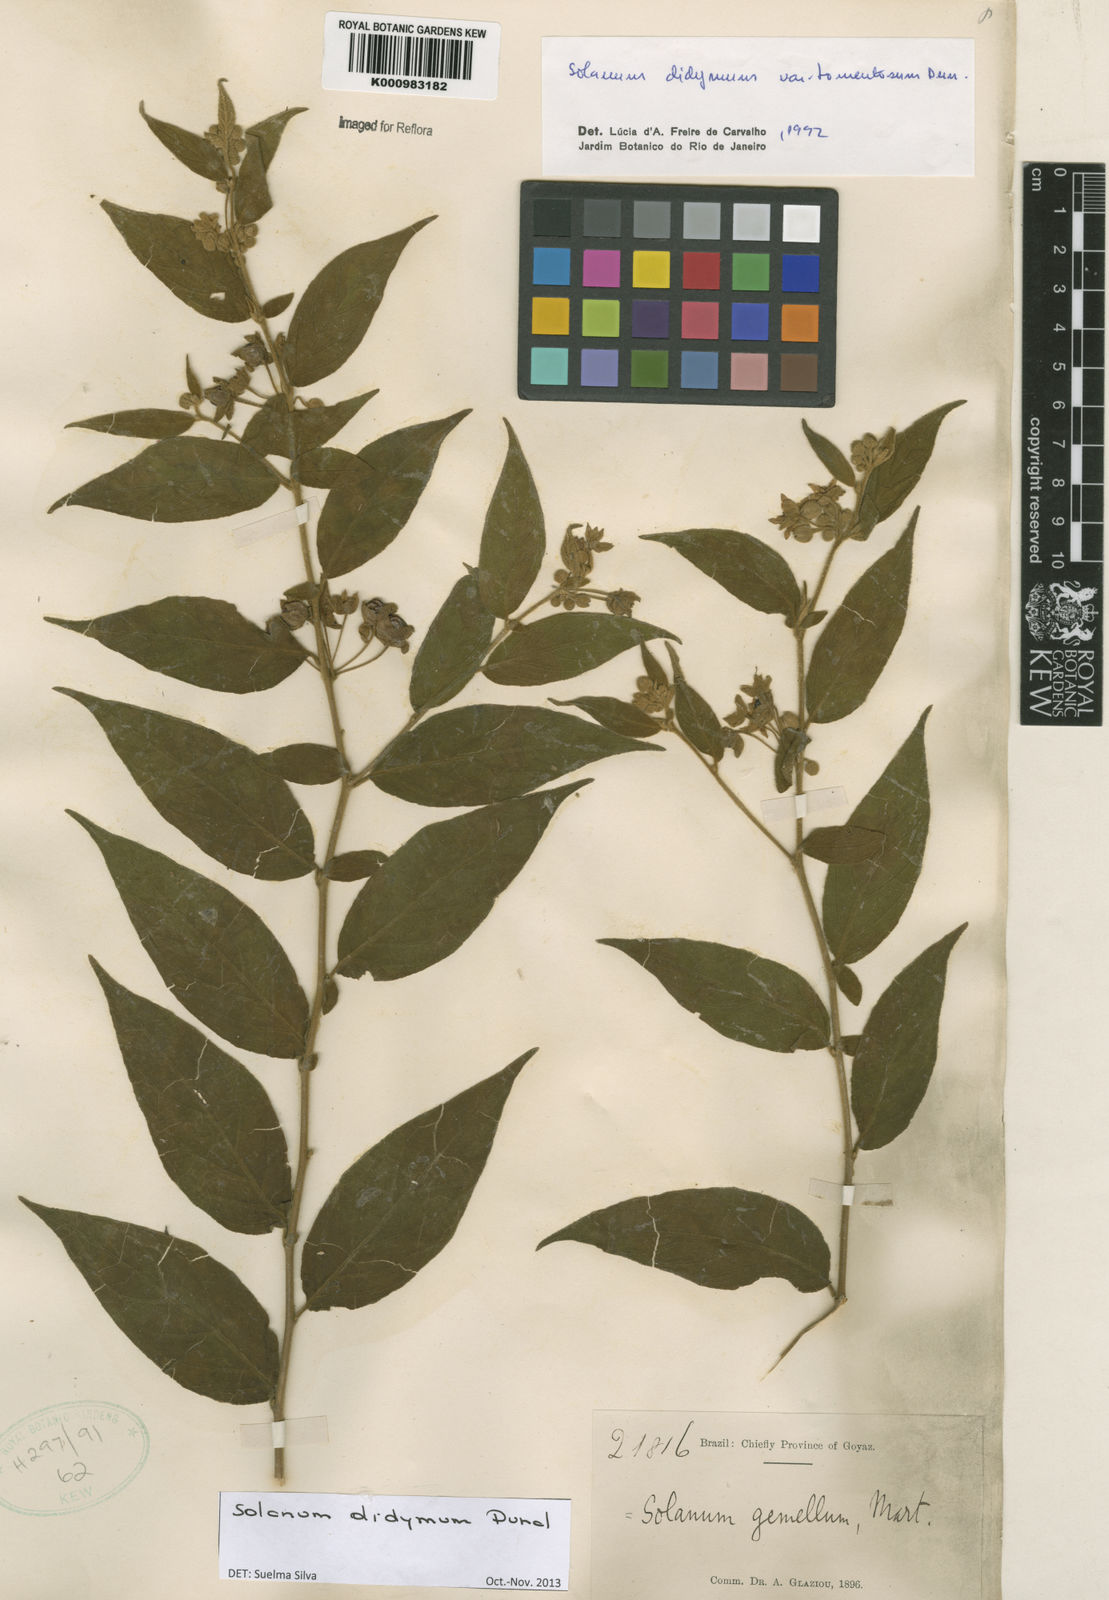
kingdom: Plantae
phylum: Tracheophyta
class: Magnoliopsida
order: Solanales
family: Solanaceae
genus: Solanum
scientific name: Solanum didymum
